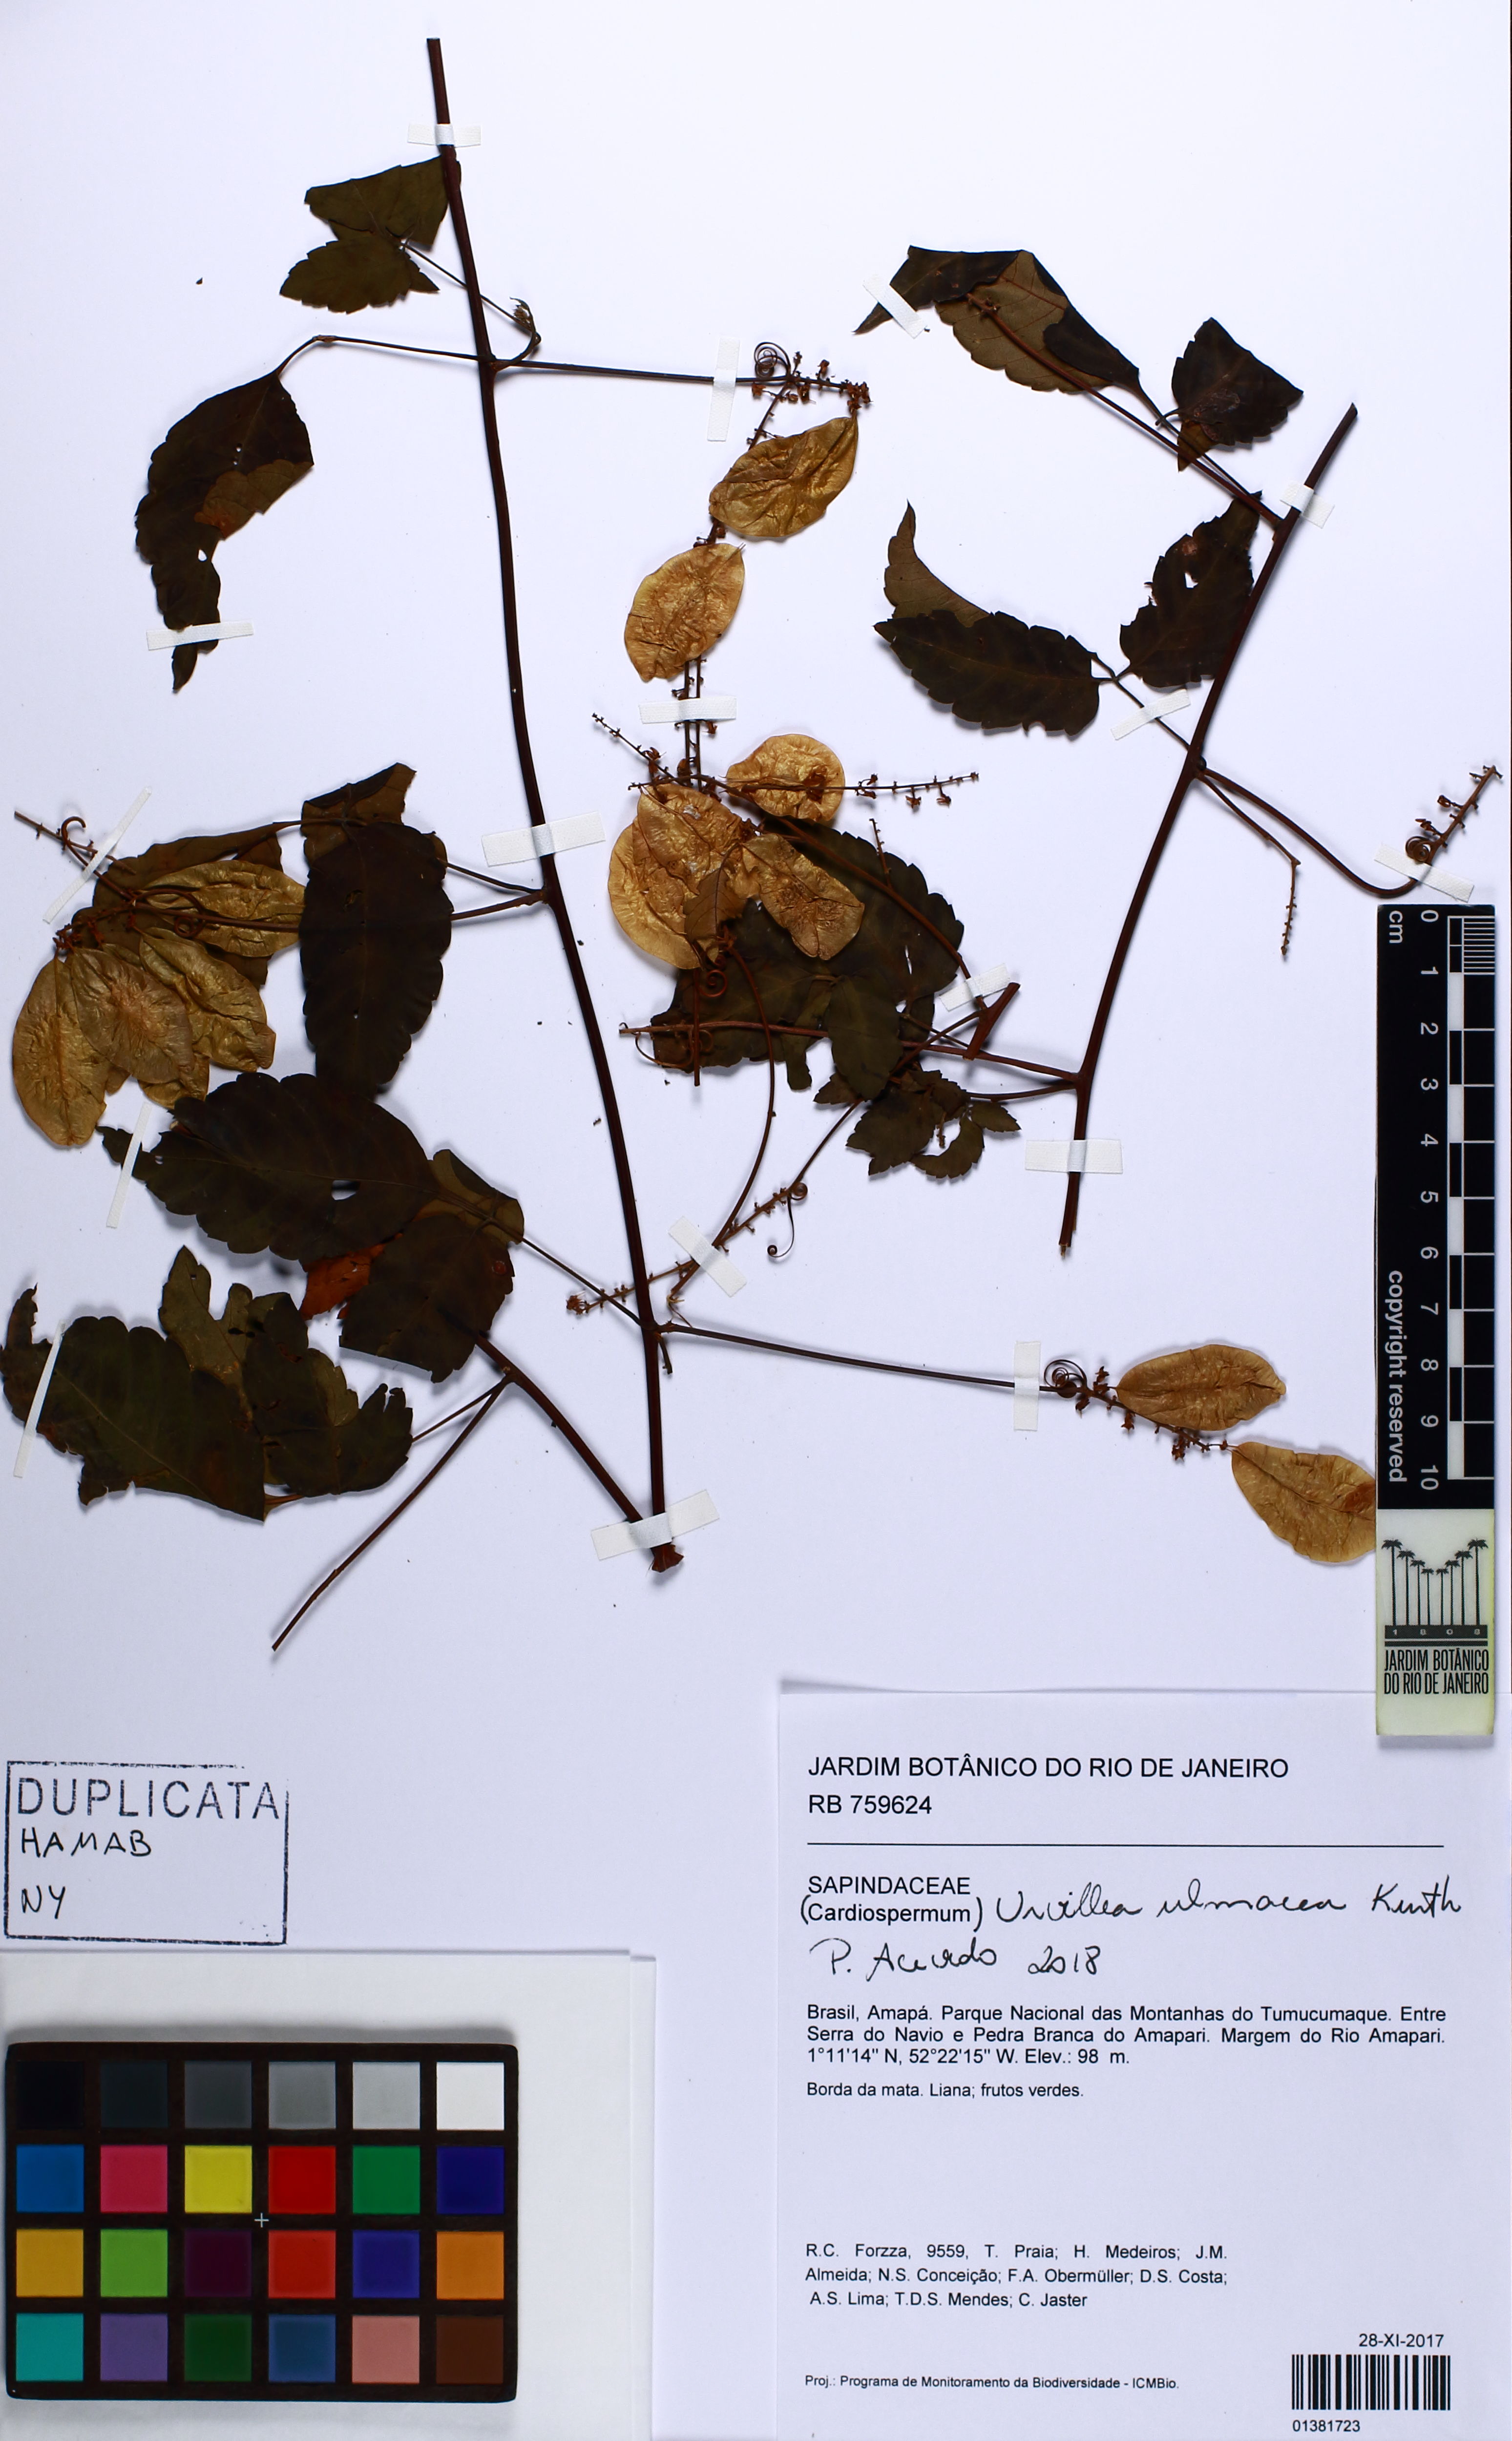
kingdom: Plantae
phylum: Tracheophyta
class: Magnoliopsida
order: Sapindales
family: Sapindaceae
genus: Urvillea
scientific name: Urvillea ulmacea
